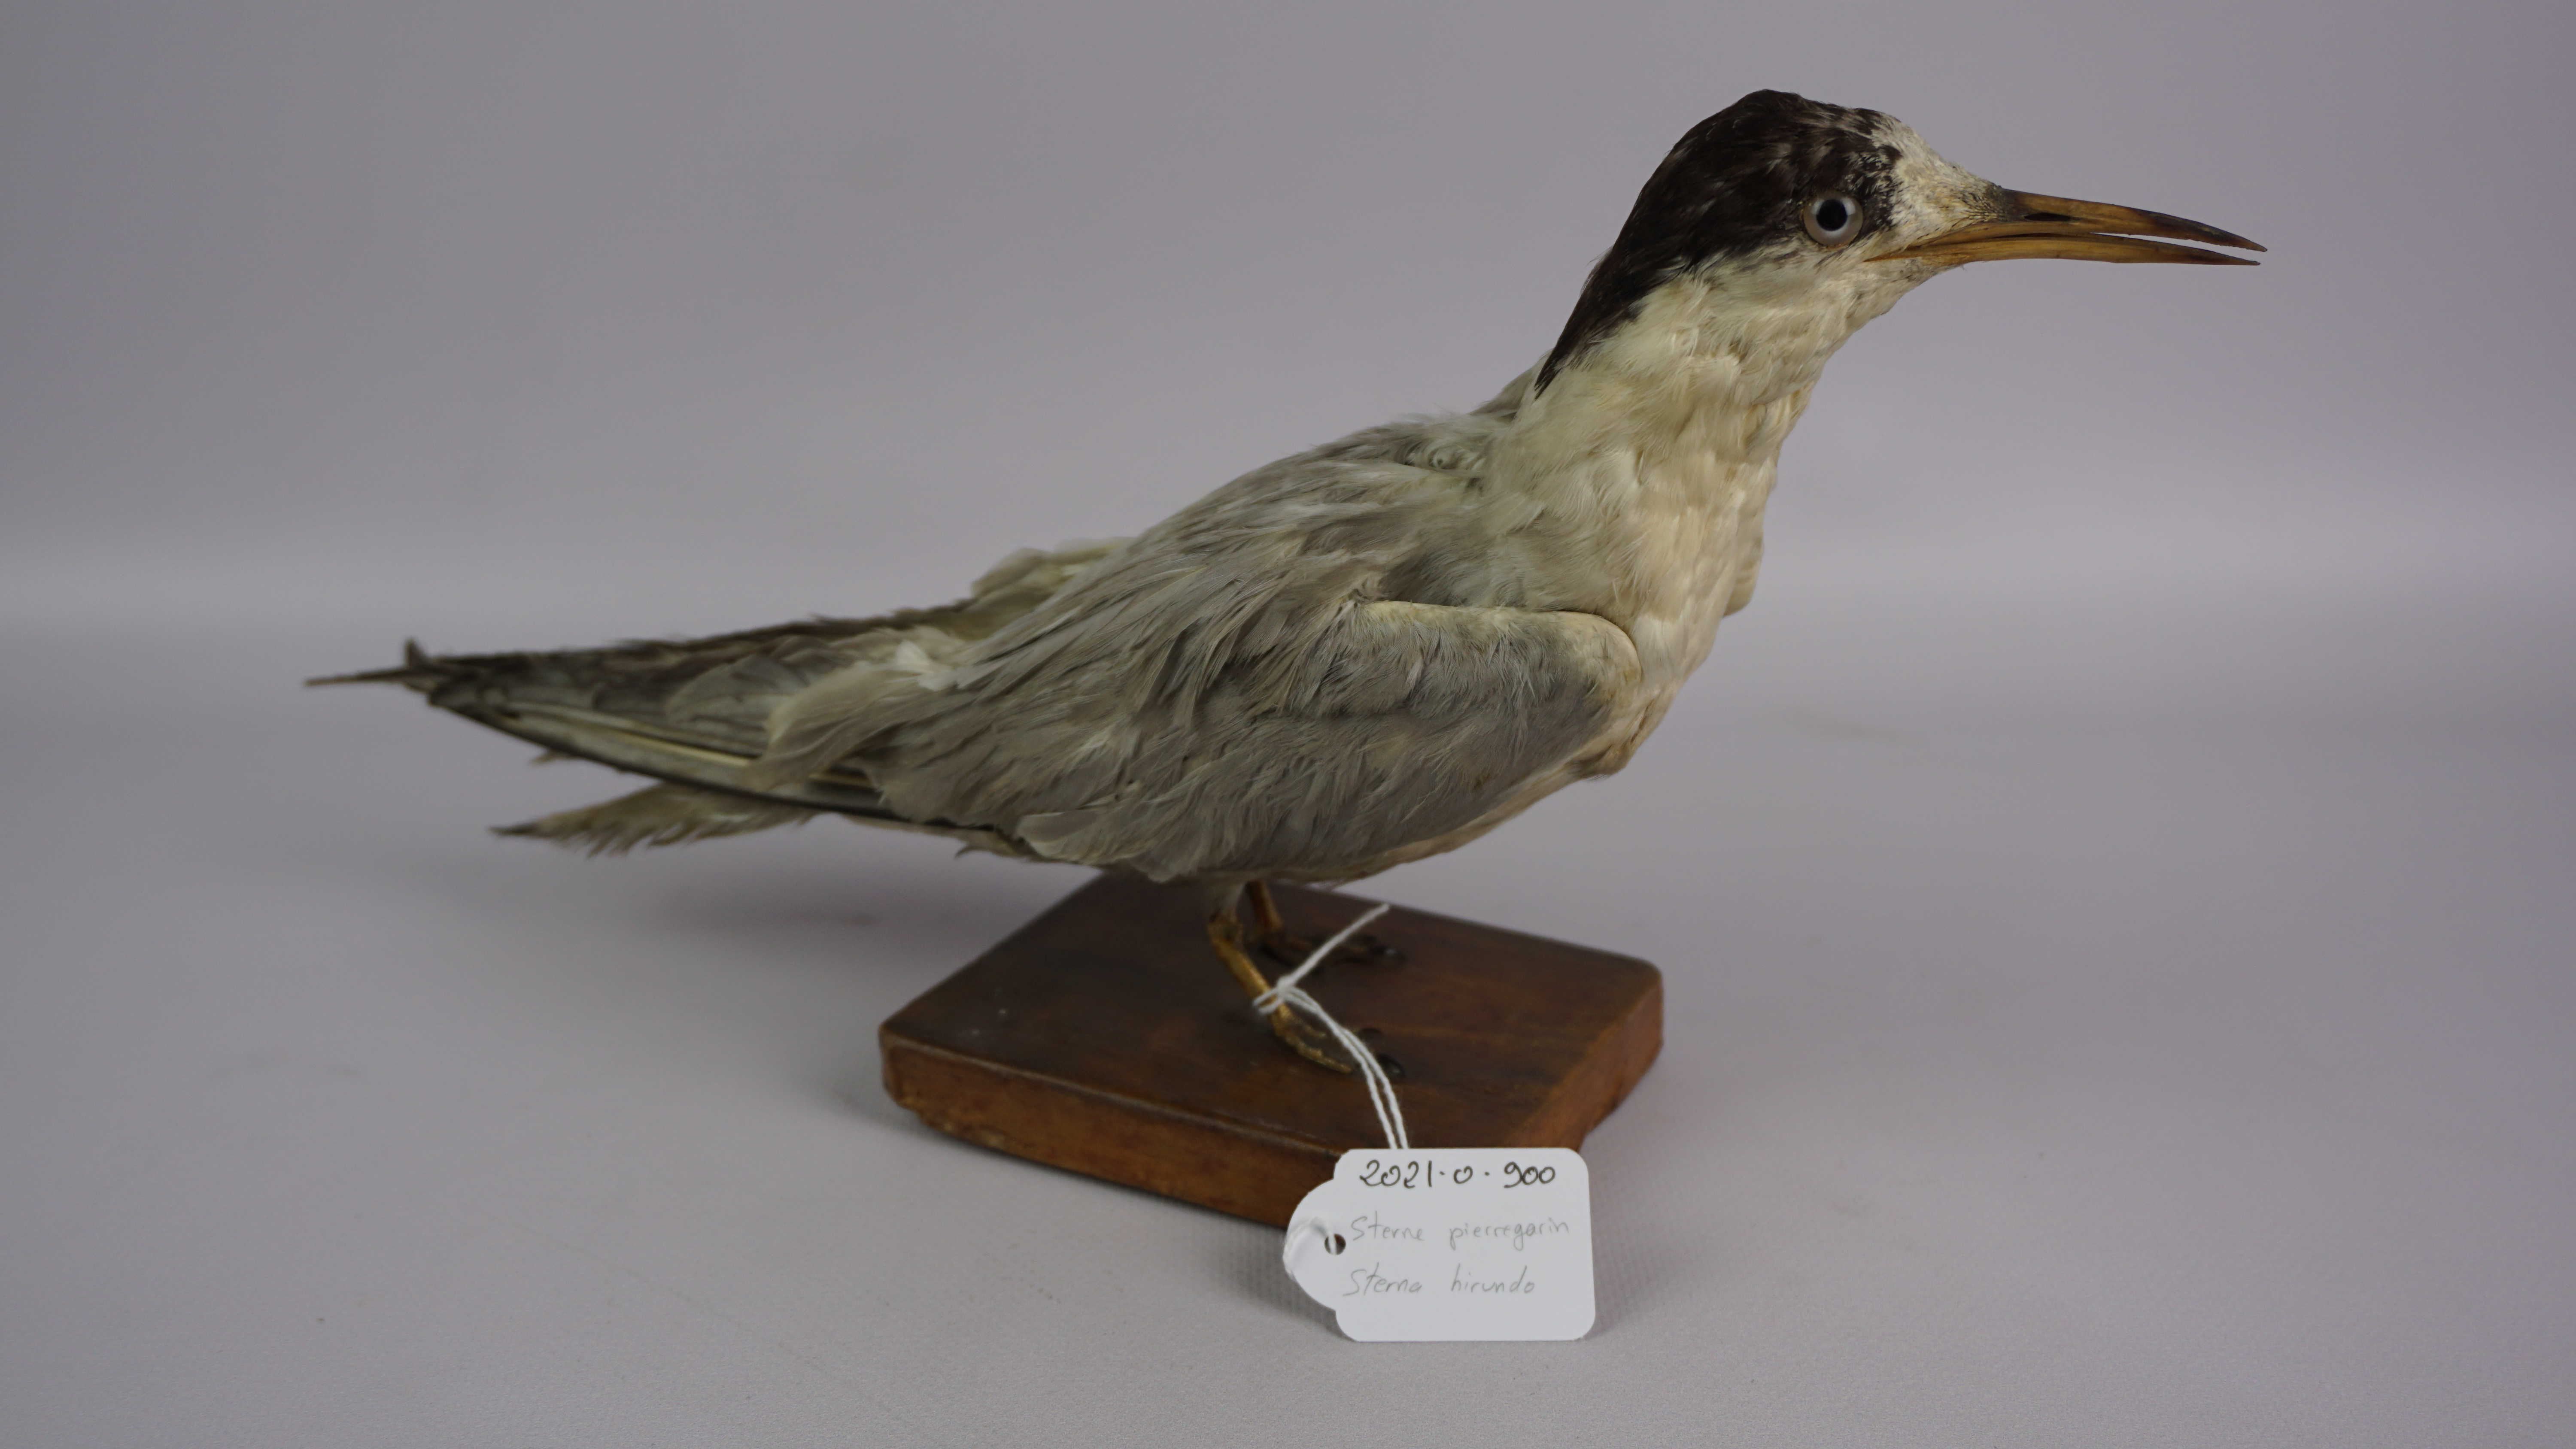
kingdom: Animalia
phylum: Chordata
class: Aves
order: Charadriiformes
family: Laridae
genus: Sterna
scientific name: Sterna hirundo
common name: Common tern
